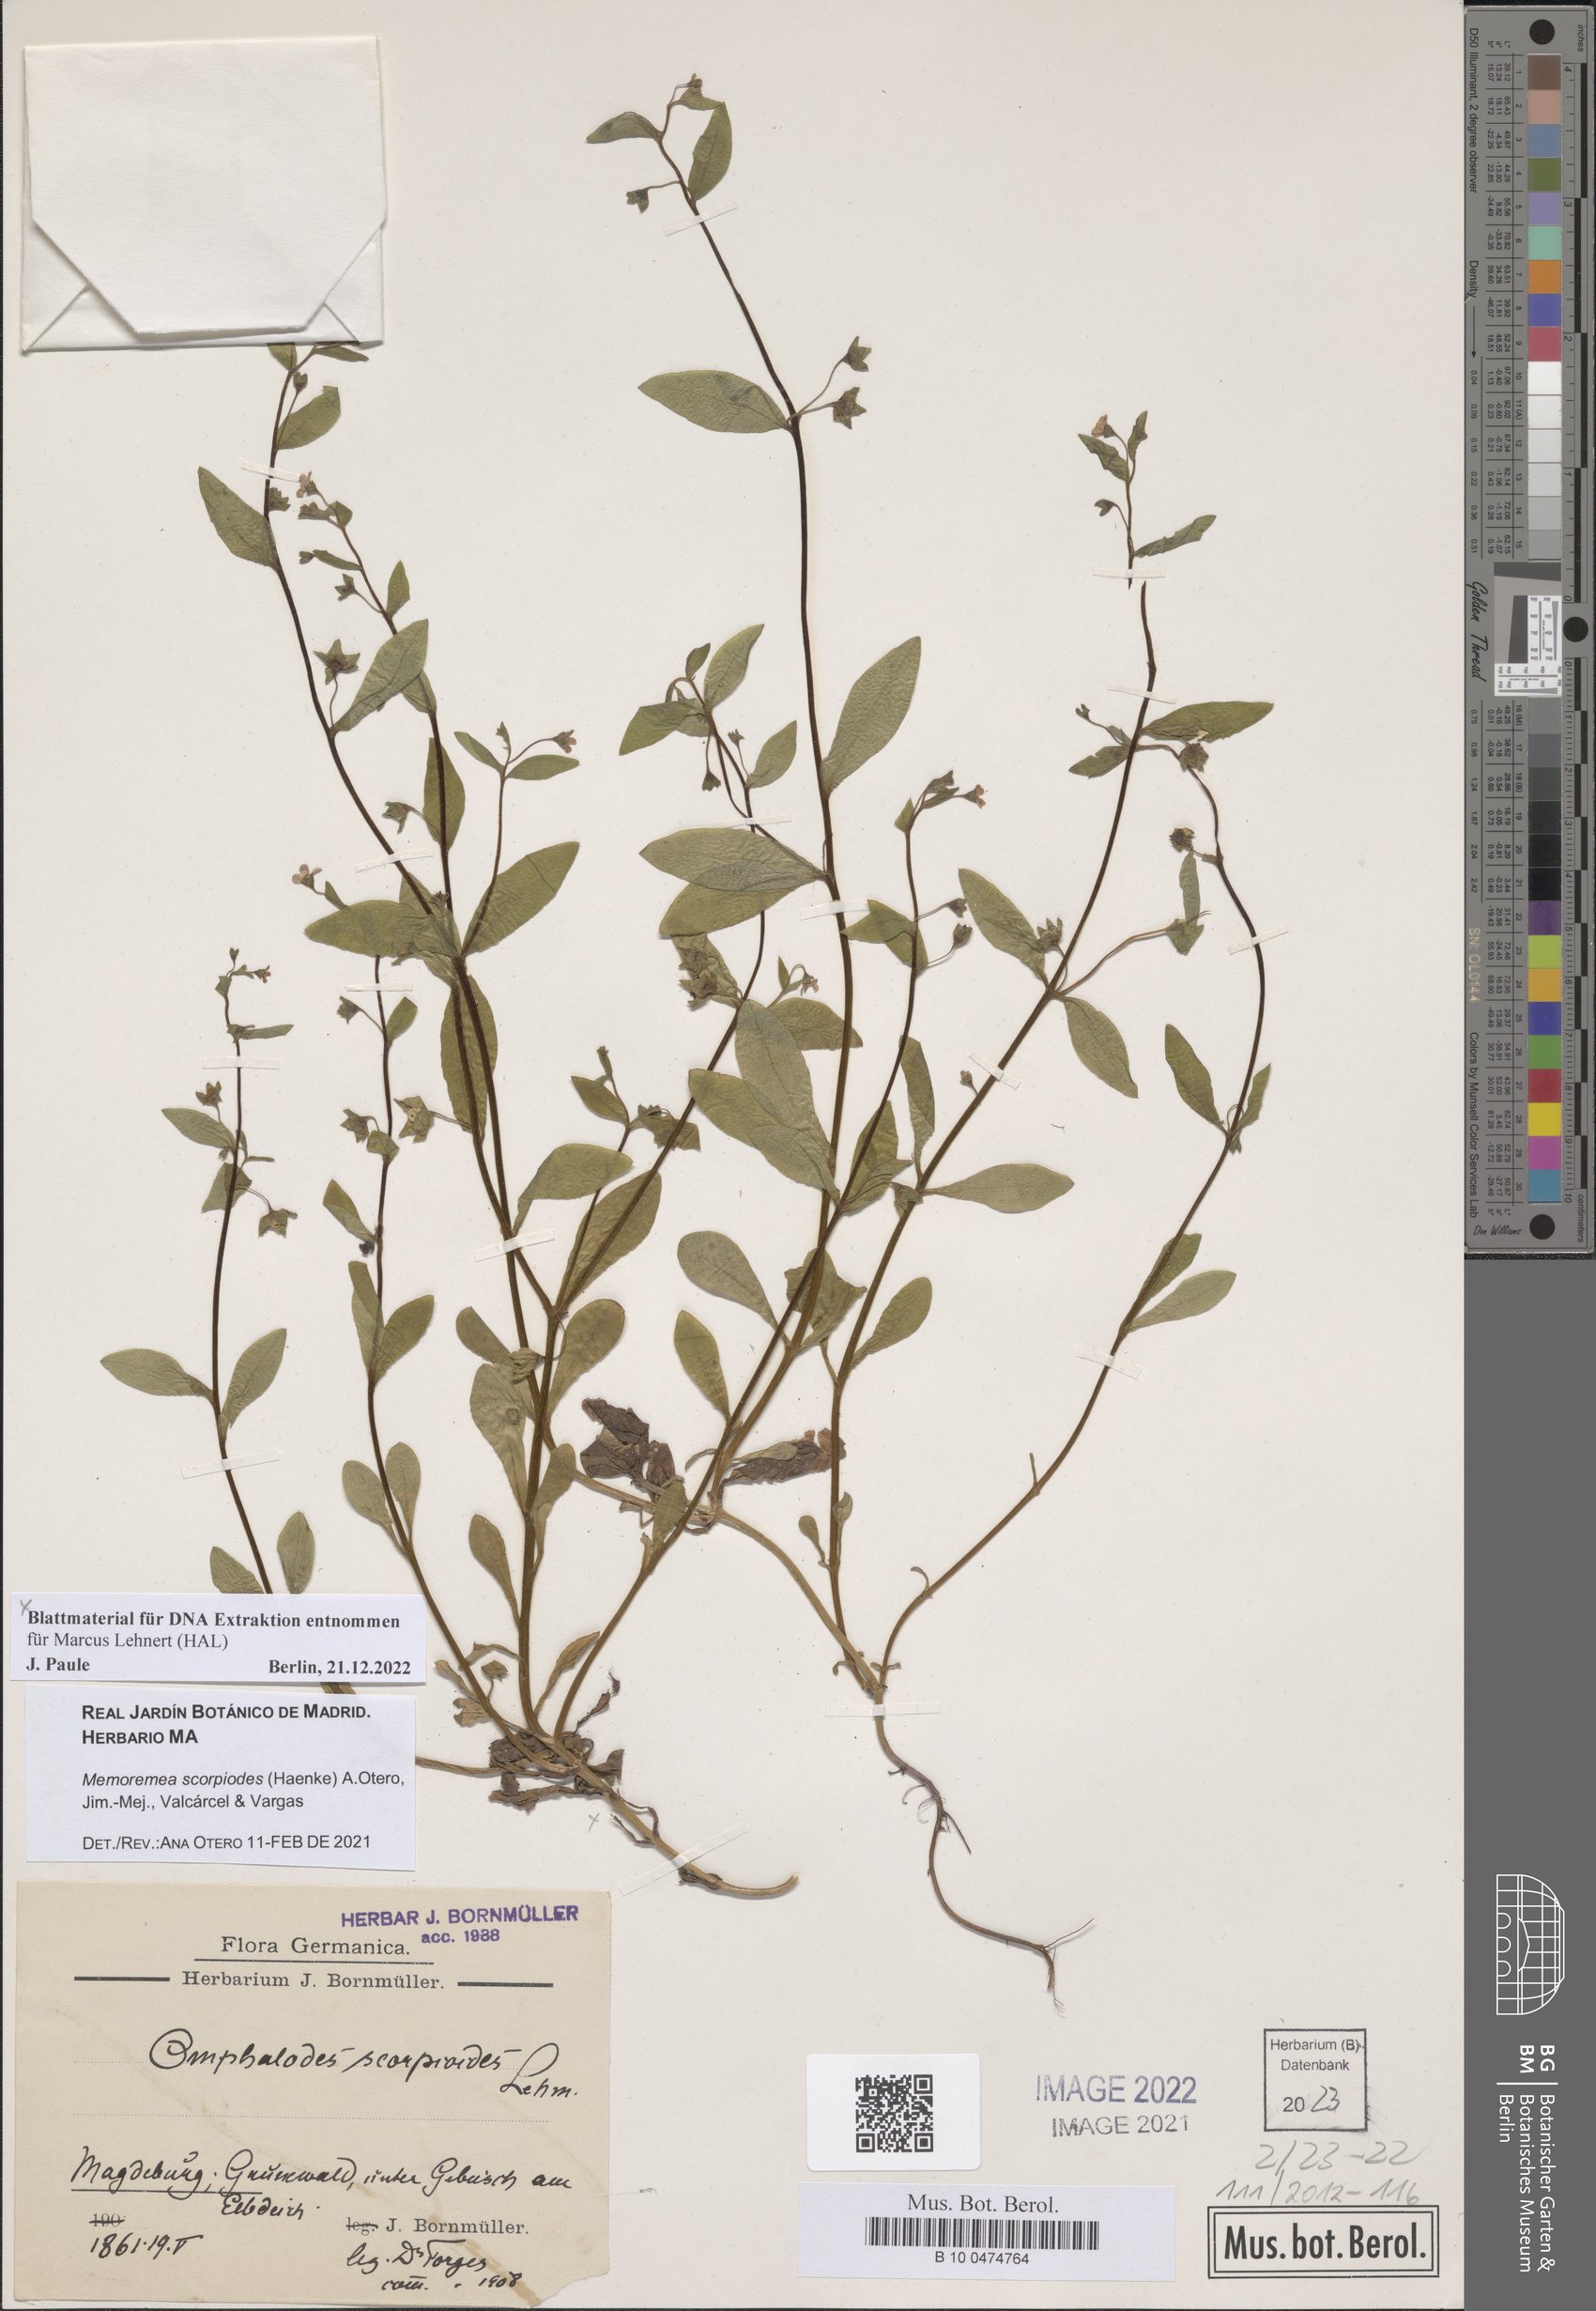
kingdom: Plantae
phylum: Tracheophyta
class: Magnoliopsida
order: Boraginales
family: Boraginaceae
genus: Memoremea
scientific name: Memoremea scorpioides
